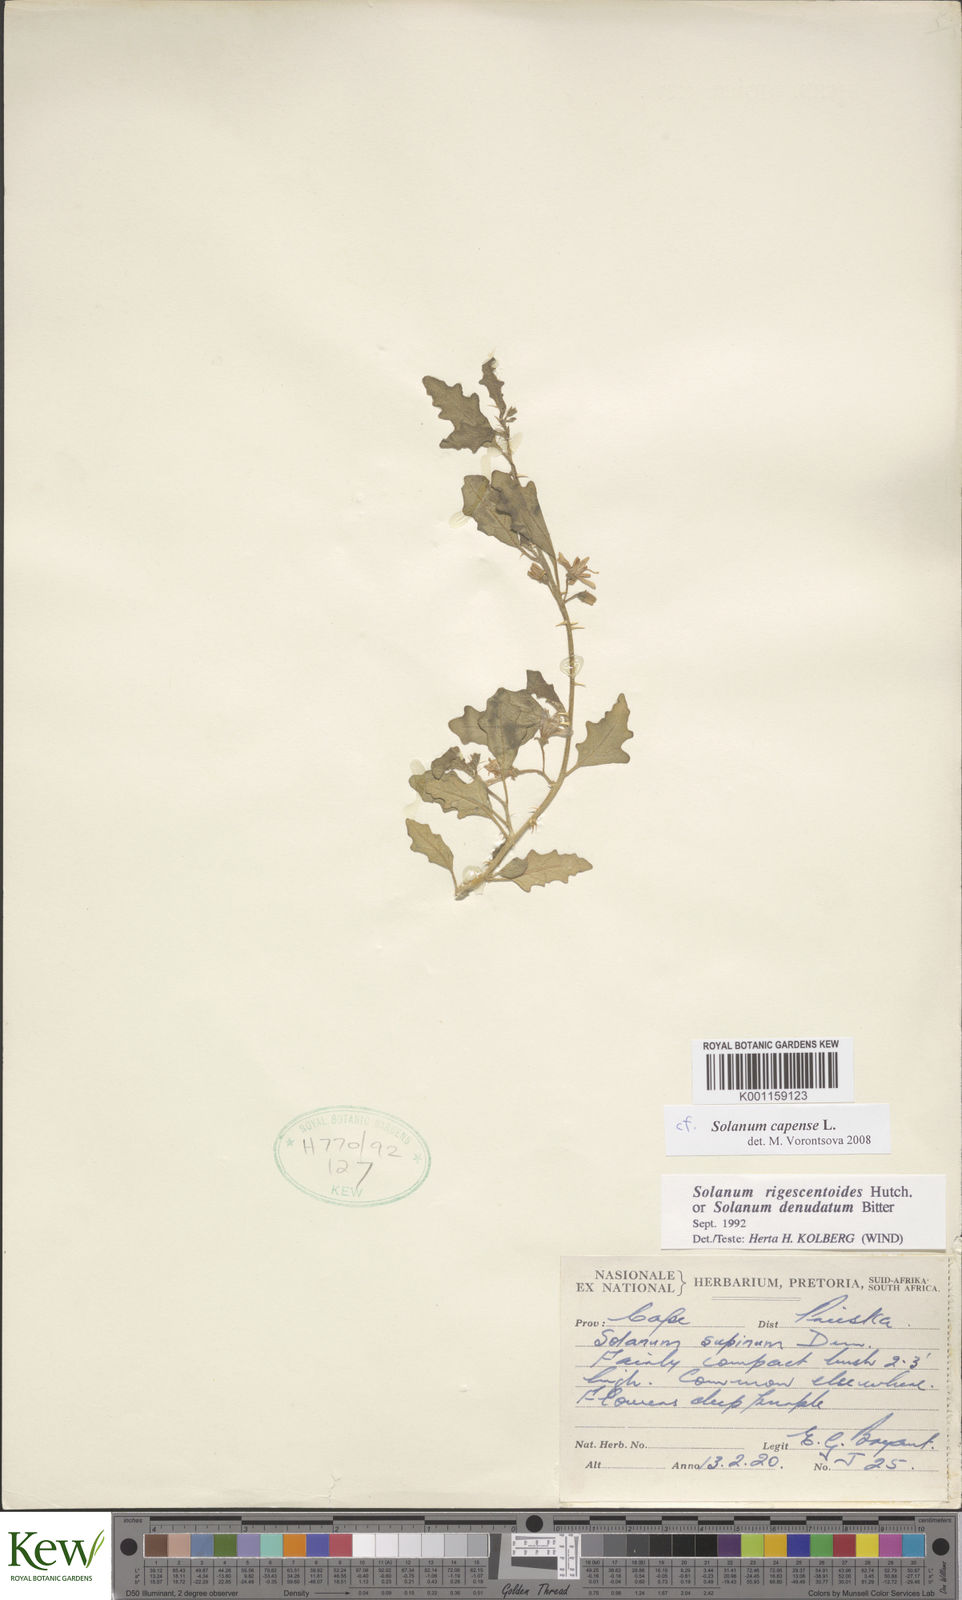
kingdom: Plantae
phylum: Tracheophyta
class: Magnoliopsida
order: Solanales
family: Solanaceae
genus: Solanum
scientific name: Solanum capense
